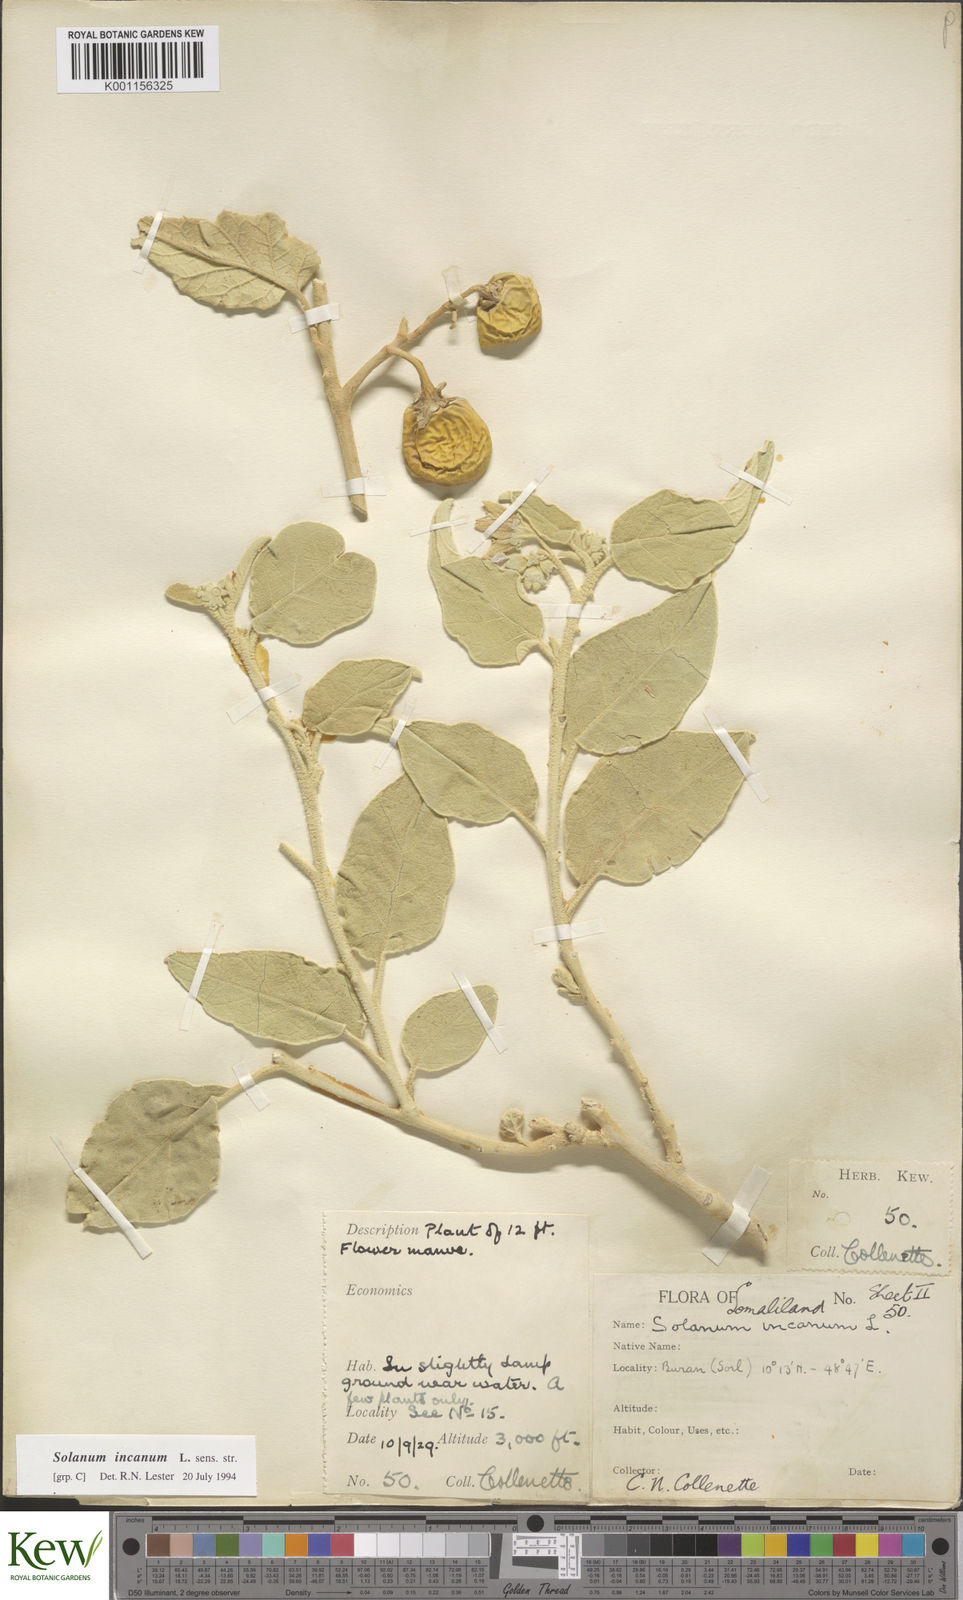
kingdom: Plantae
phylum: Tracheophyta
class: Magnoliopsida
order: Solanales
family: Solanaceae
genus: Solanum
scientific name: Solanum incanum
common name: Bitter apple
